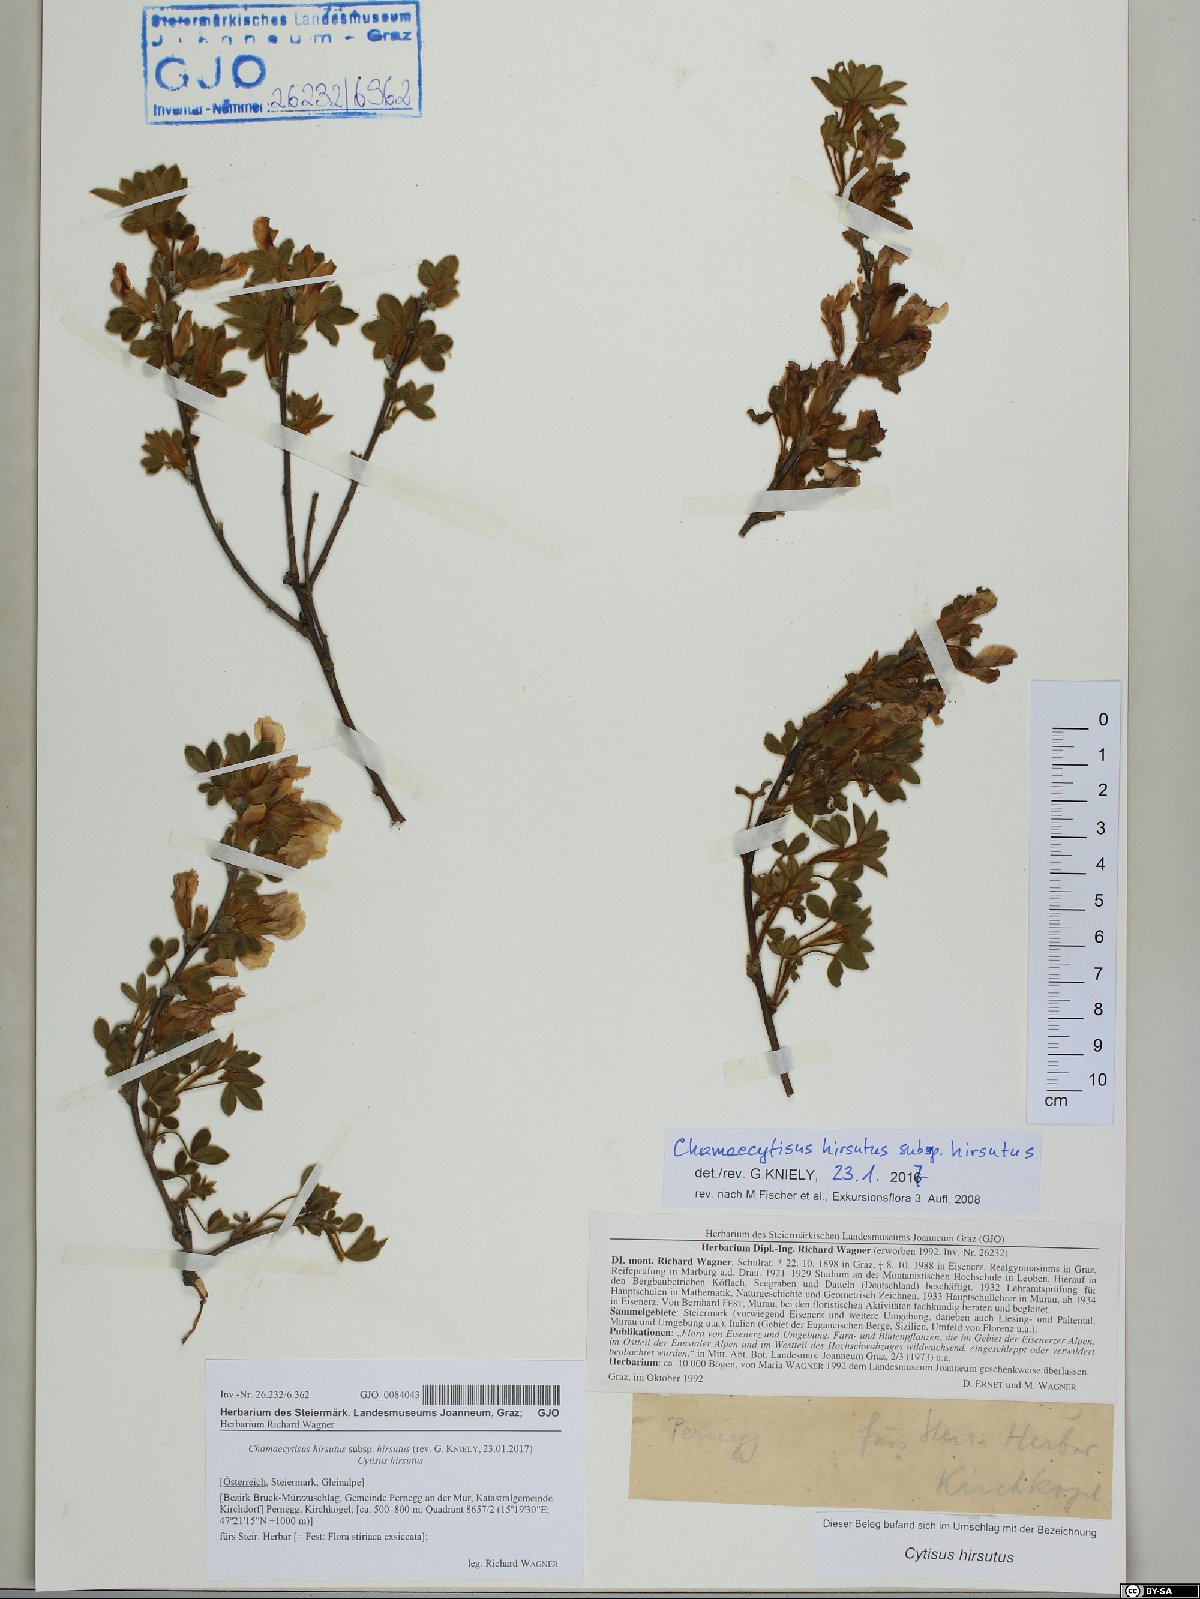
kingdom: Plantae
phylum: Tracheophyta
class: Magnoliopsida
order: Fabales
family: Fabaceae
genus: Chamaecytisus
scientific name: Chamaecytisus hirsutus
